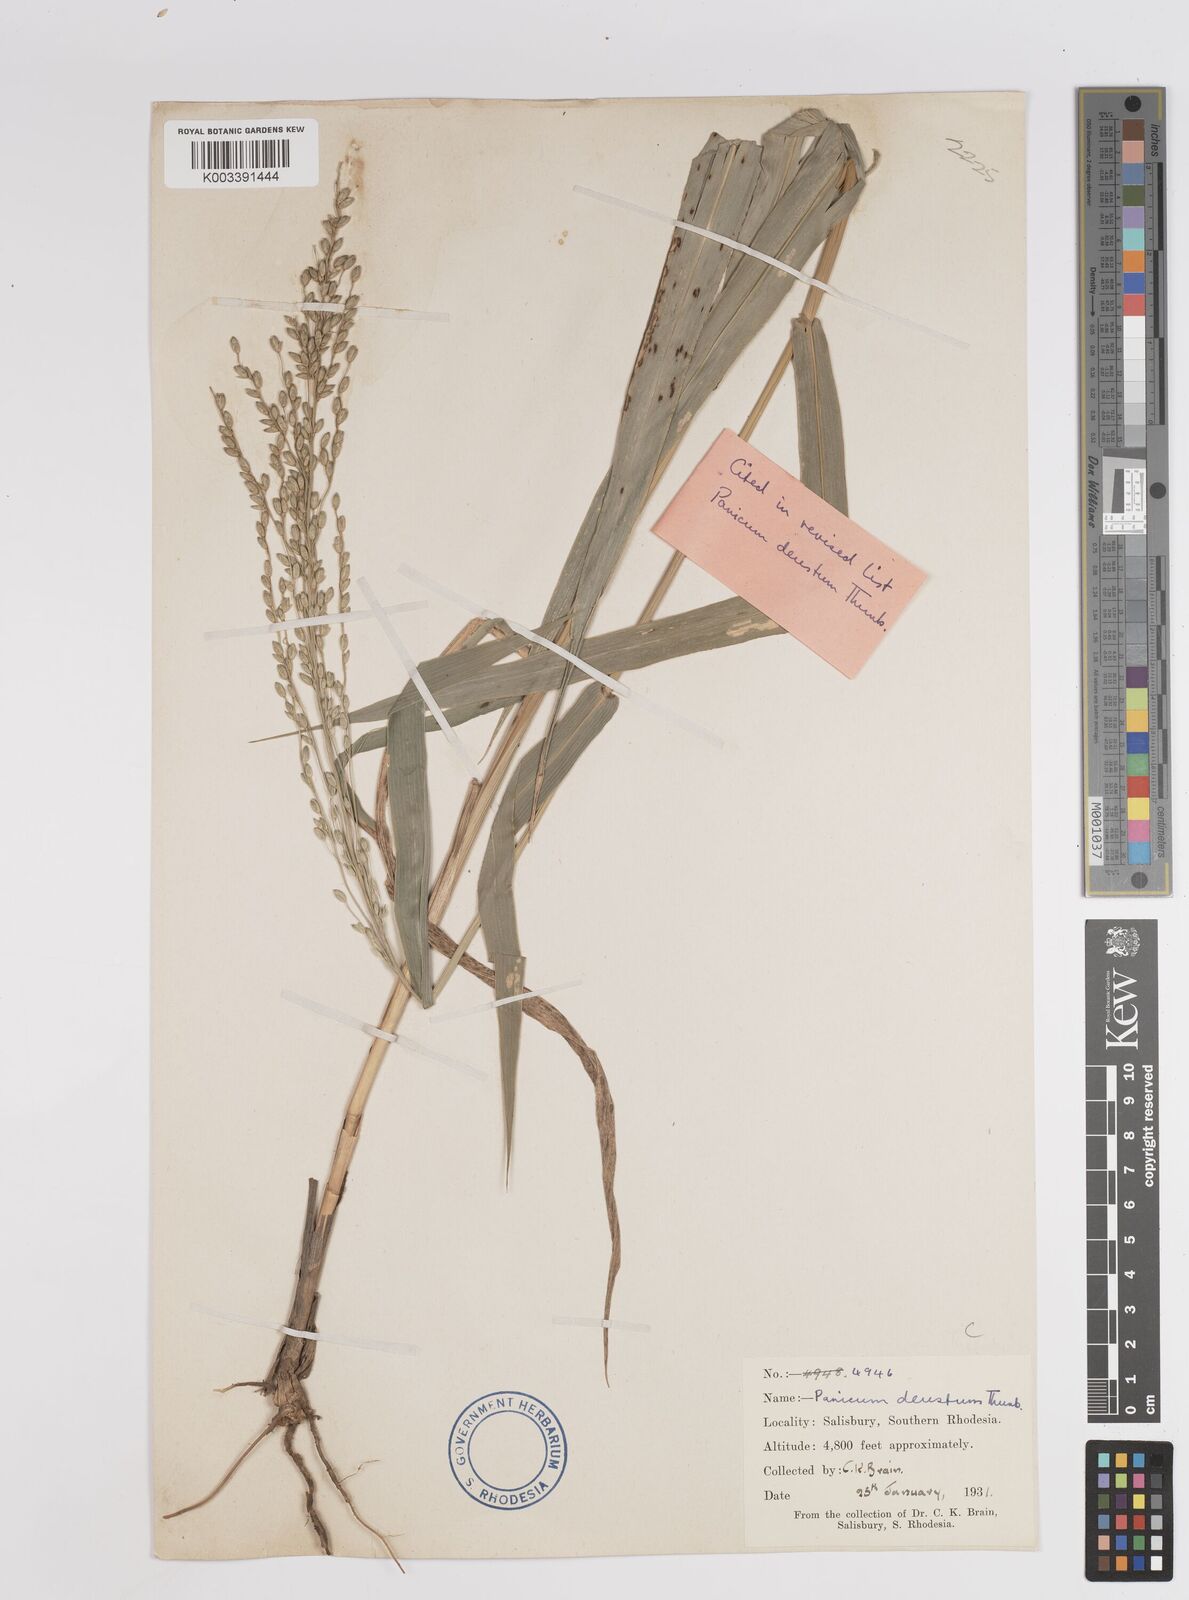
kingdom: Plantae
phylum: Tracheophyta
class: Liliopsida
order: Poales
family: Poaceae
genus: Panicum
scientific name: Panicum deustum
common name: Reed panicum
